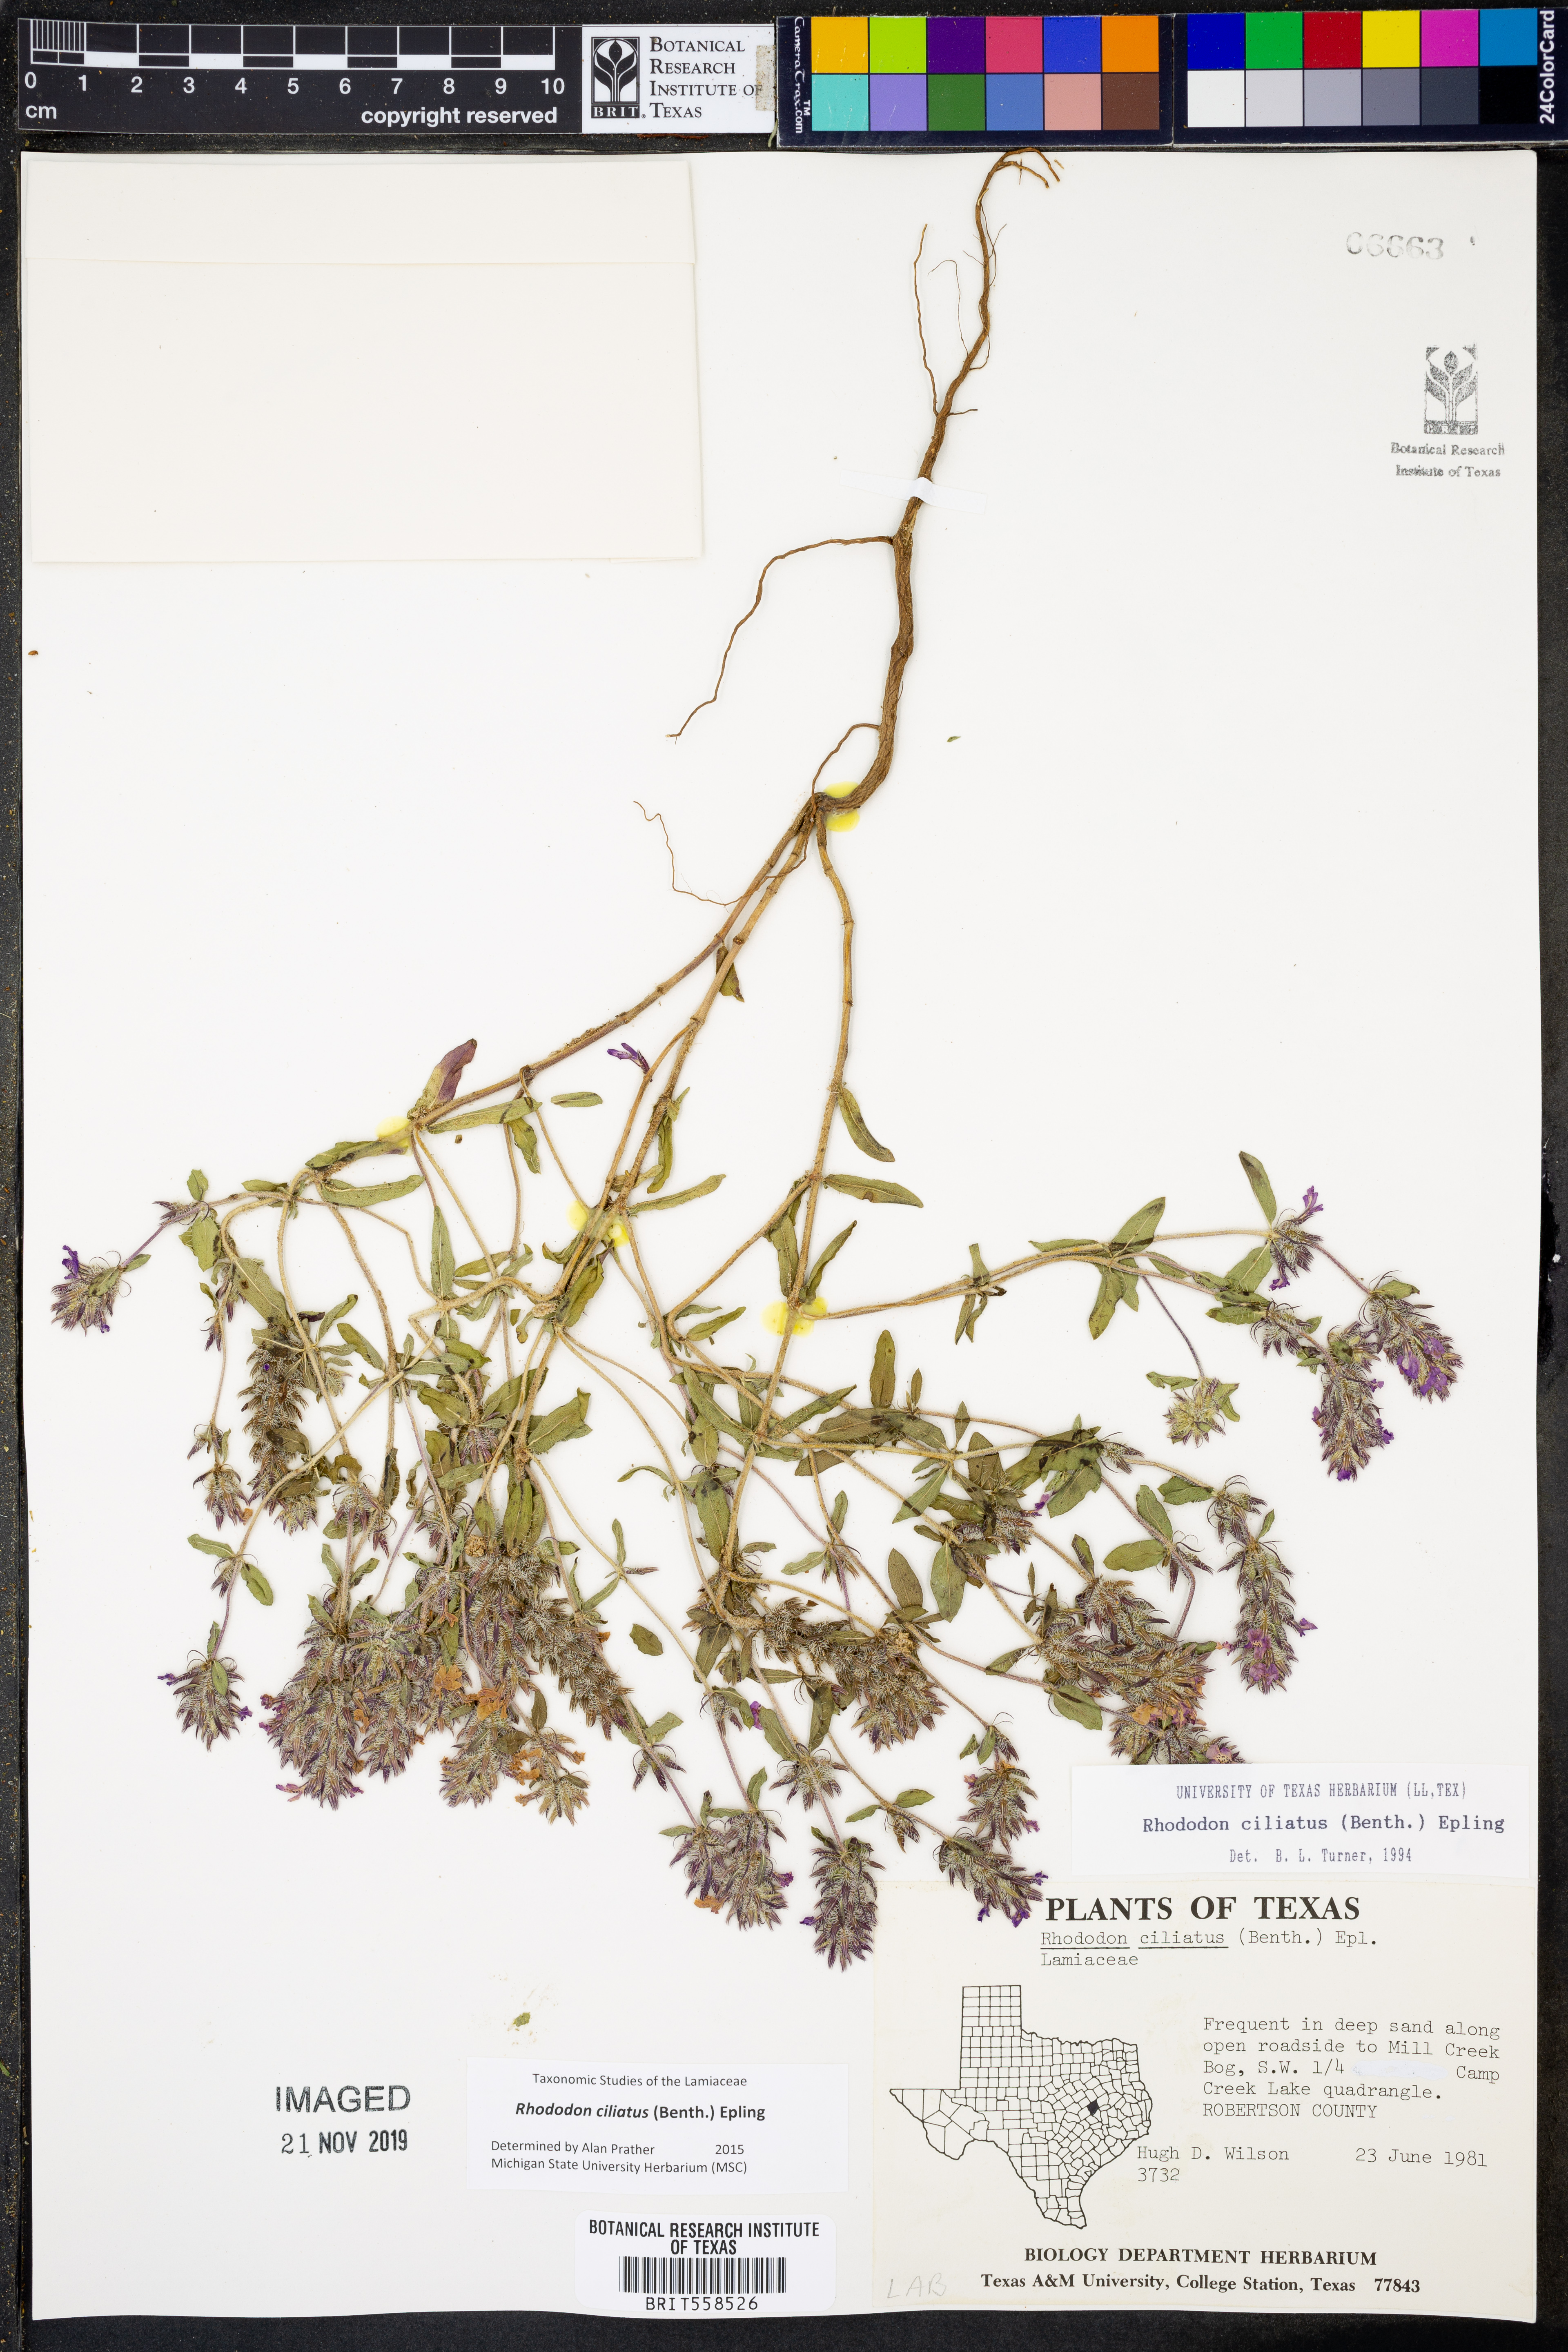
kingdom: Plantae
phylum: Tracheophyta
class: Magnoliopsida
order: Lamiales
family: Lamiaceae
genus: Rhododon
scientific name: Rhododon ciliatus
